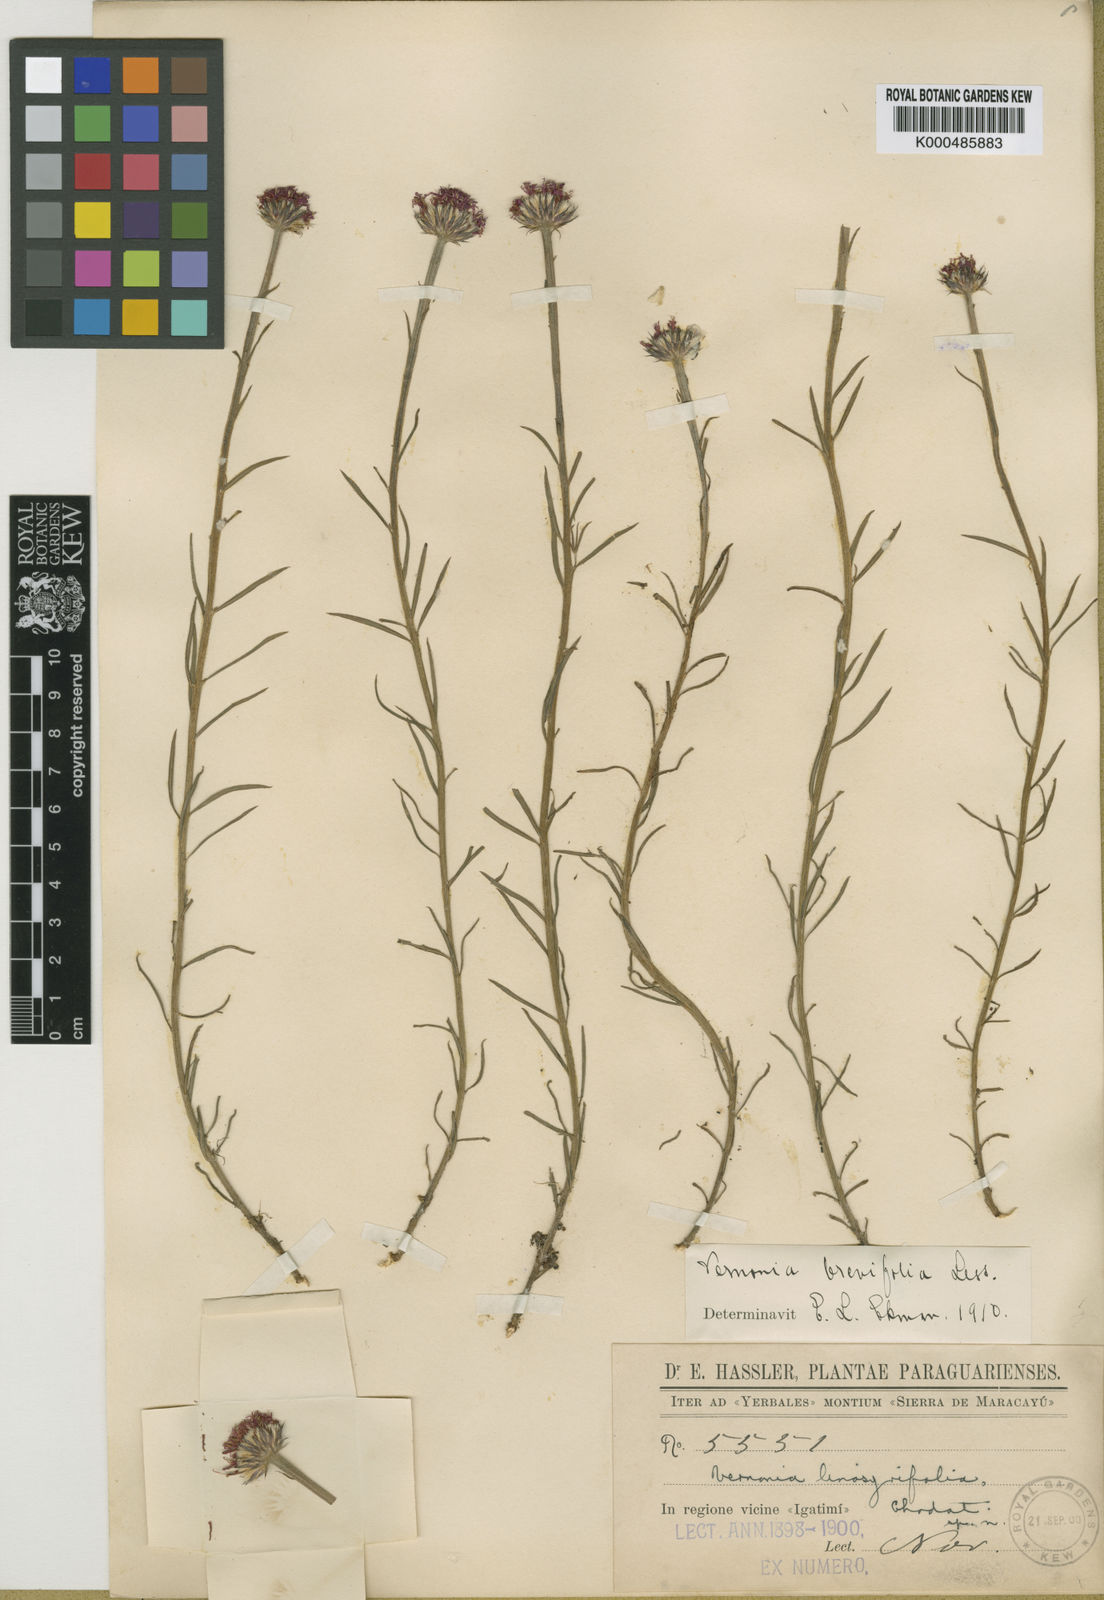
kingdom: Plantae
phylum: Tracheophyta
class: Magnoliopsida
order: Asterales
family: Asteraceae
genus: Lessingianthus
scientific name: Lessingianthus brevifolius
